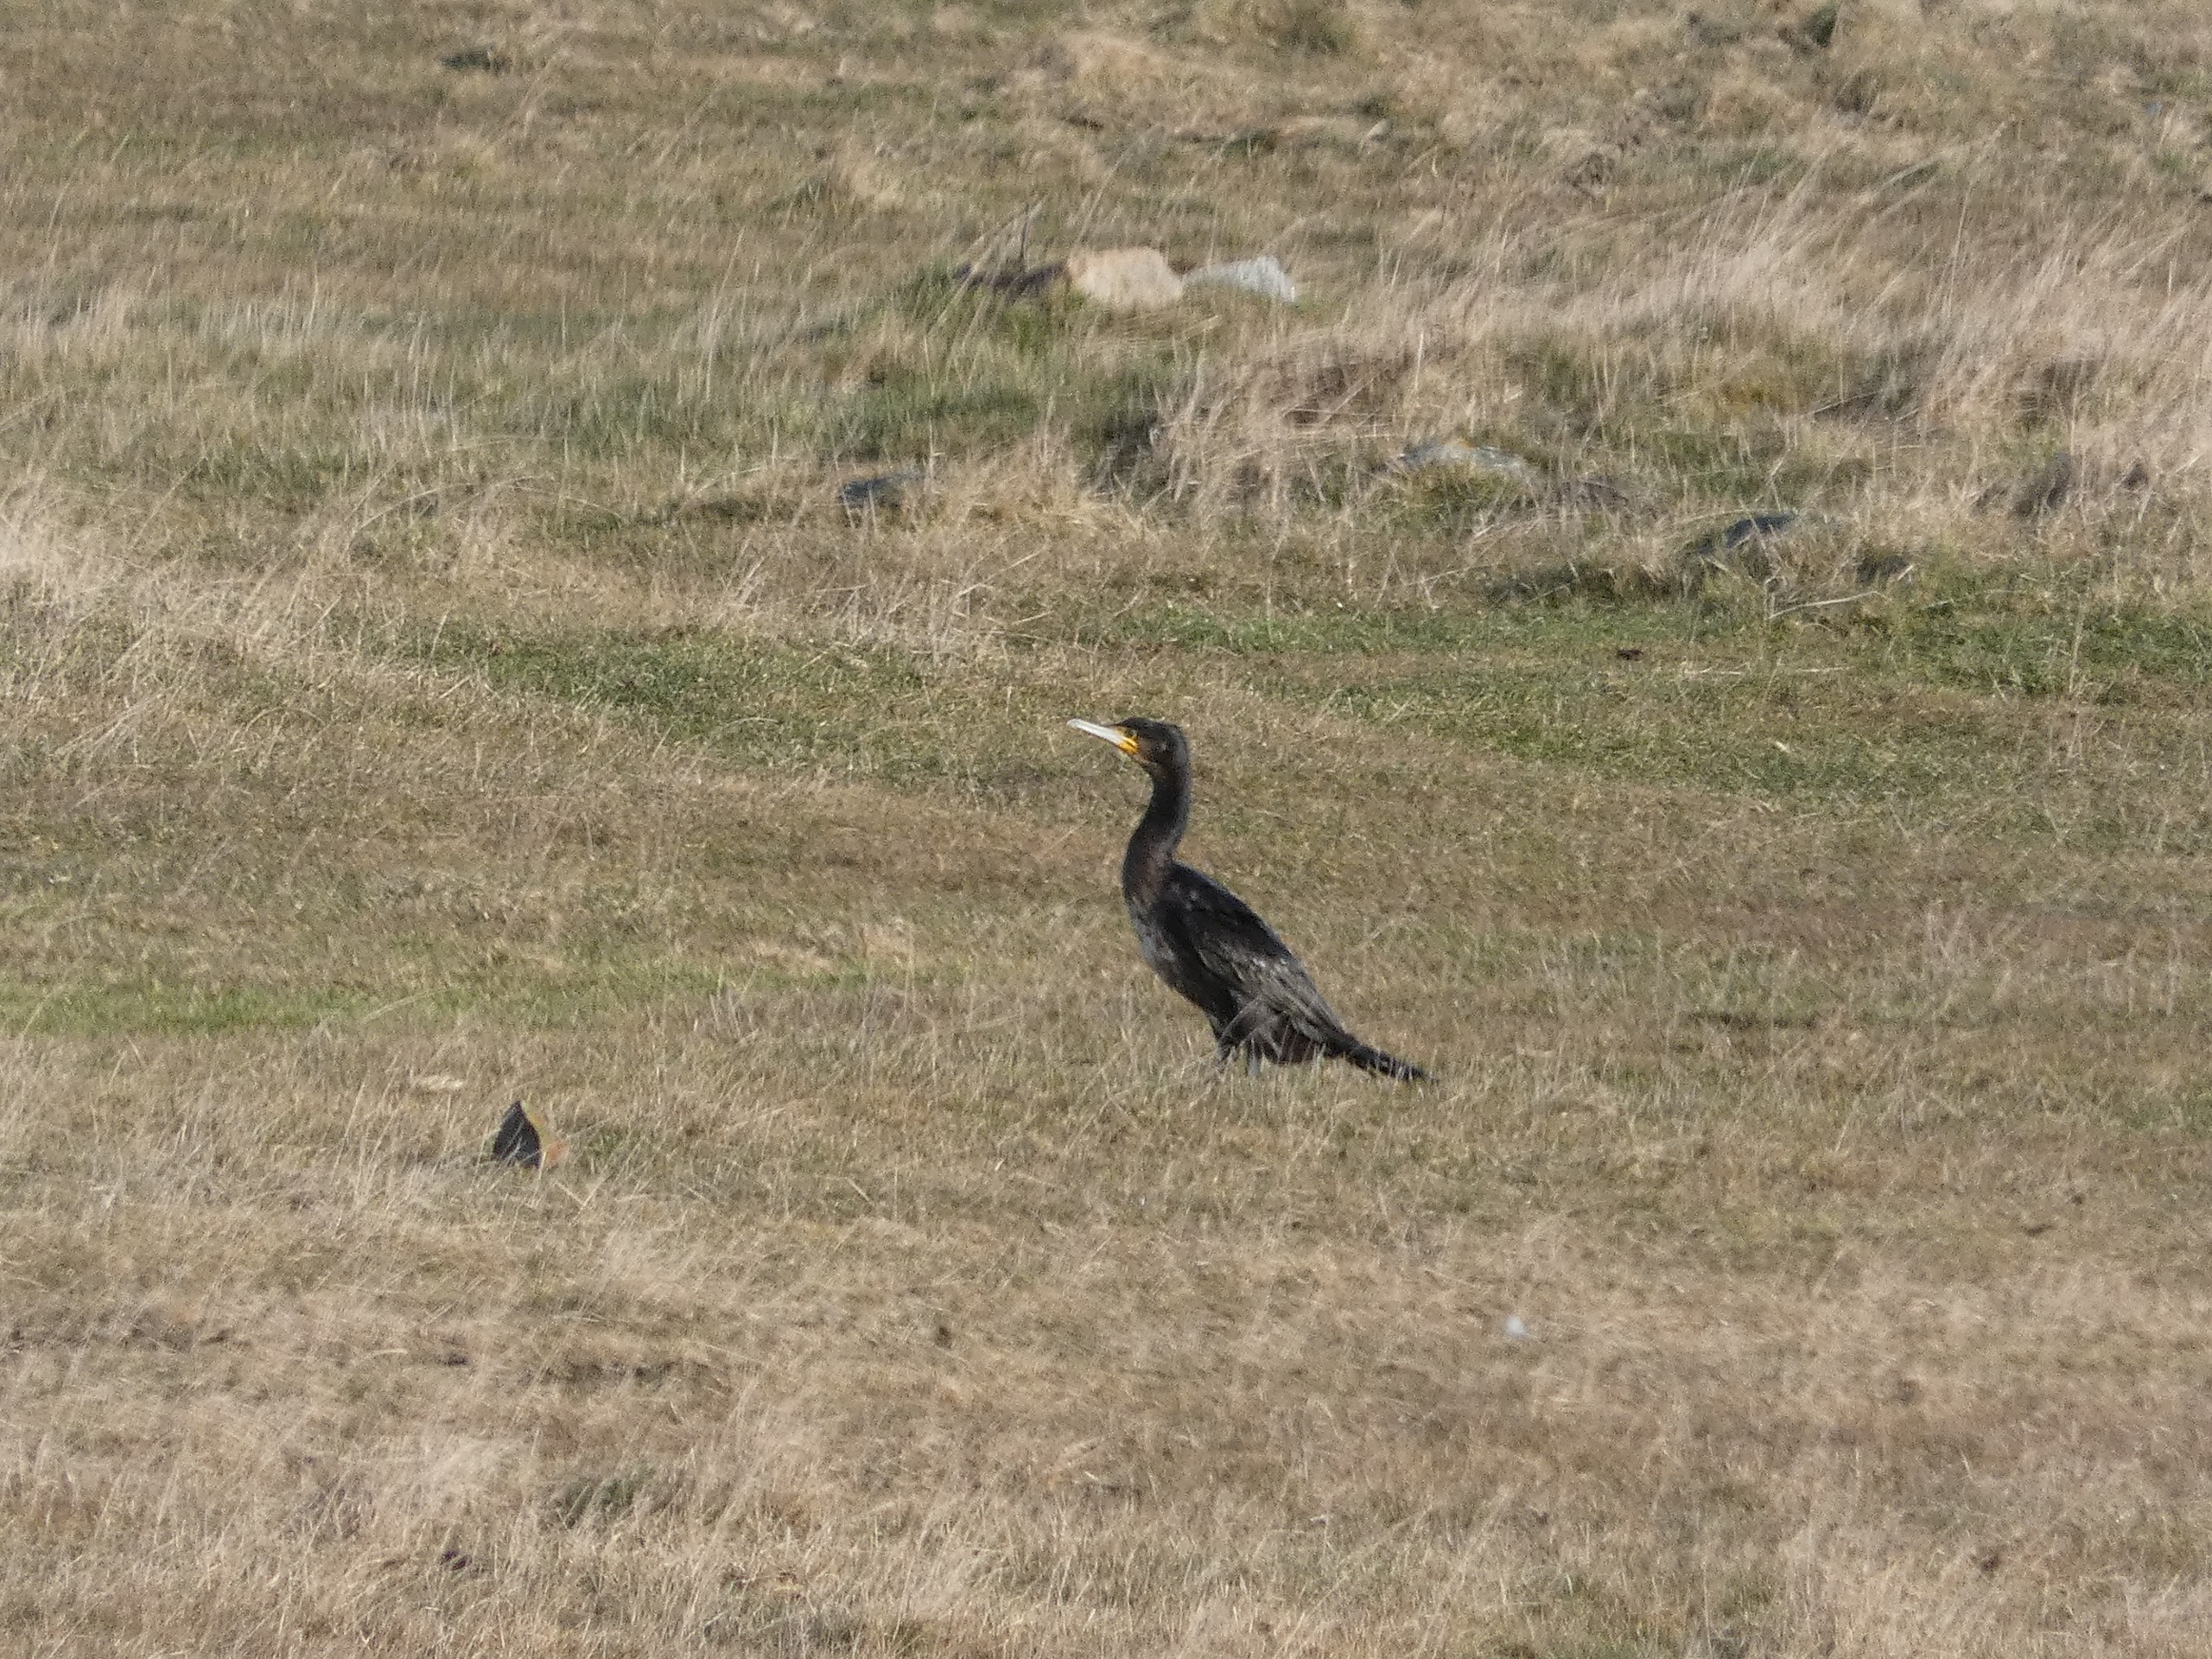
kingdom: Animalia
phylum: Chordata
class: Aves
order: Suliformes
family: Phalacrocoracidae
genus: Phalacrocorax
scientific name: Phalacrocorax carbo
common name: Skarv
